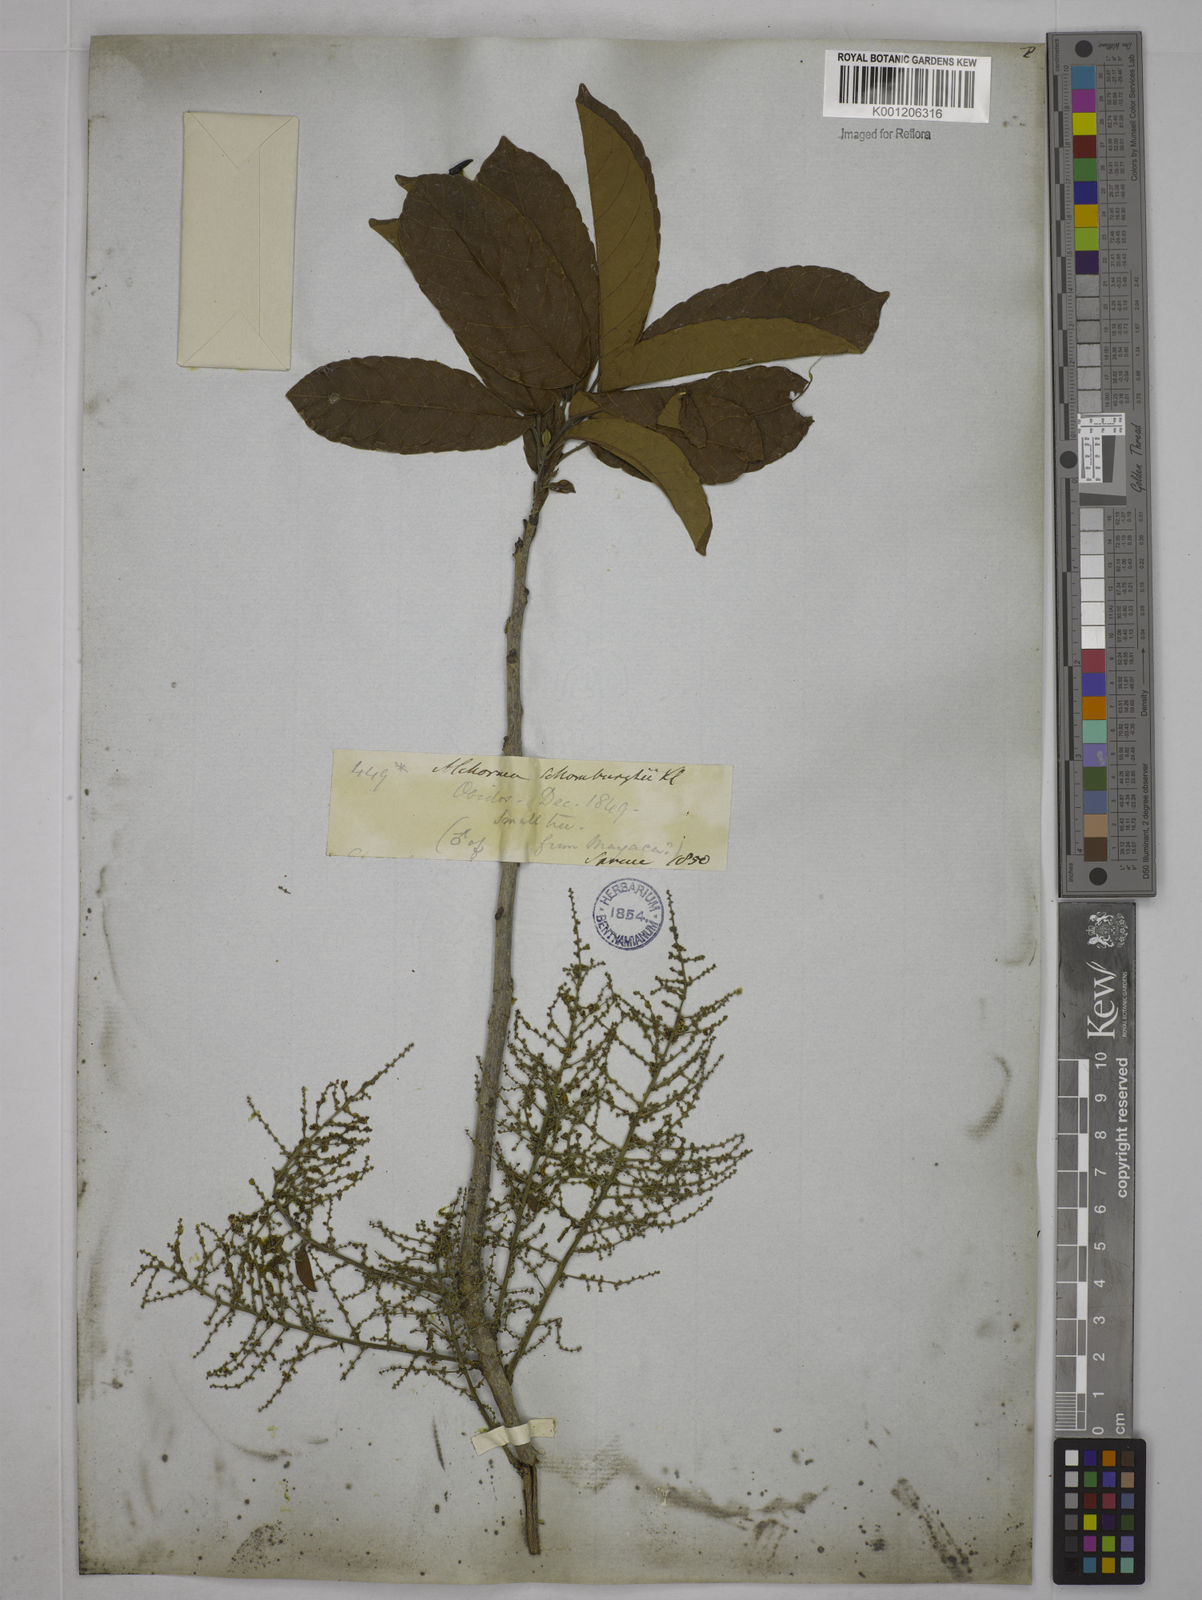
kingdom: Plantae
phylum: Tracheophyta
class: Magnoliopsida
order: Malpighiales
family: Euphorbiaceae
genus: Alchornea
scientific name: Alchornea discolor
